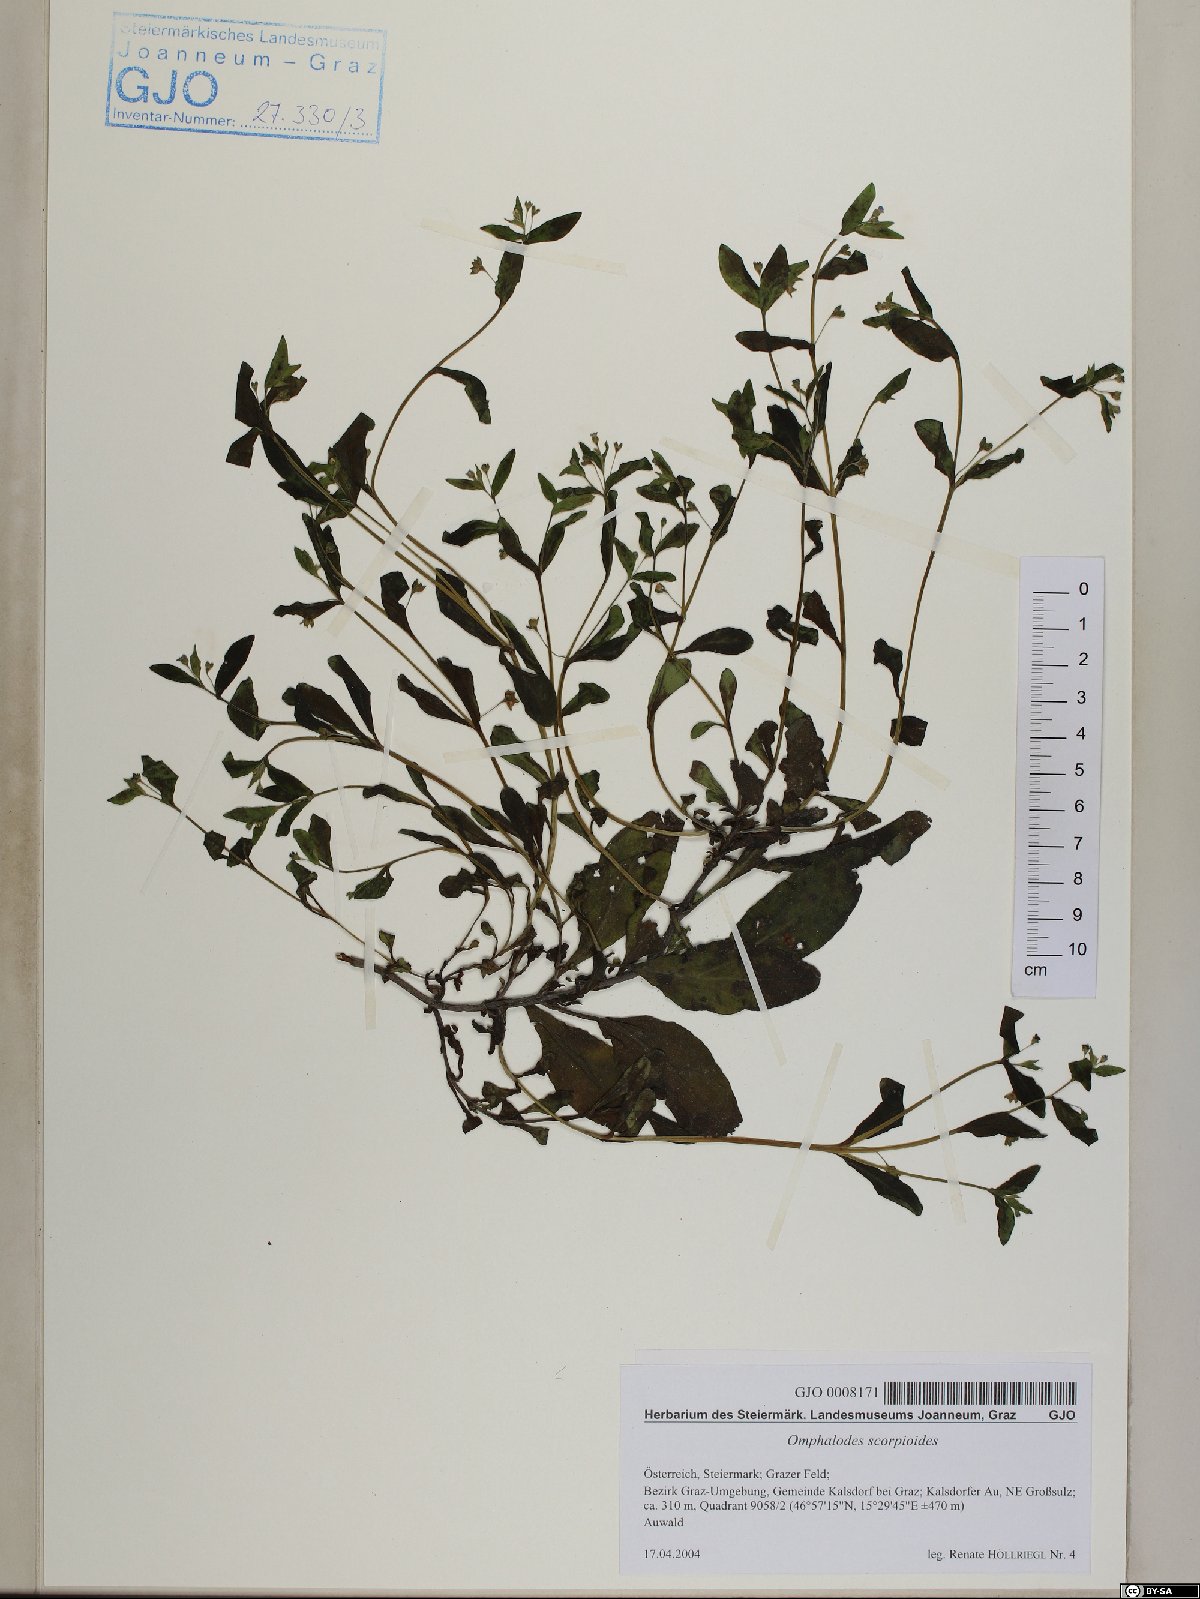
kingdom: Plantae
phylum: Tracheophyta
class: Magnoliopsida
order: Boraginales
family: Boraginaceae
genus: Memoremea
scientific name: Memoremea scorpioides
